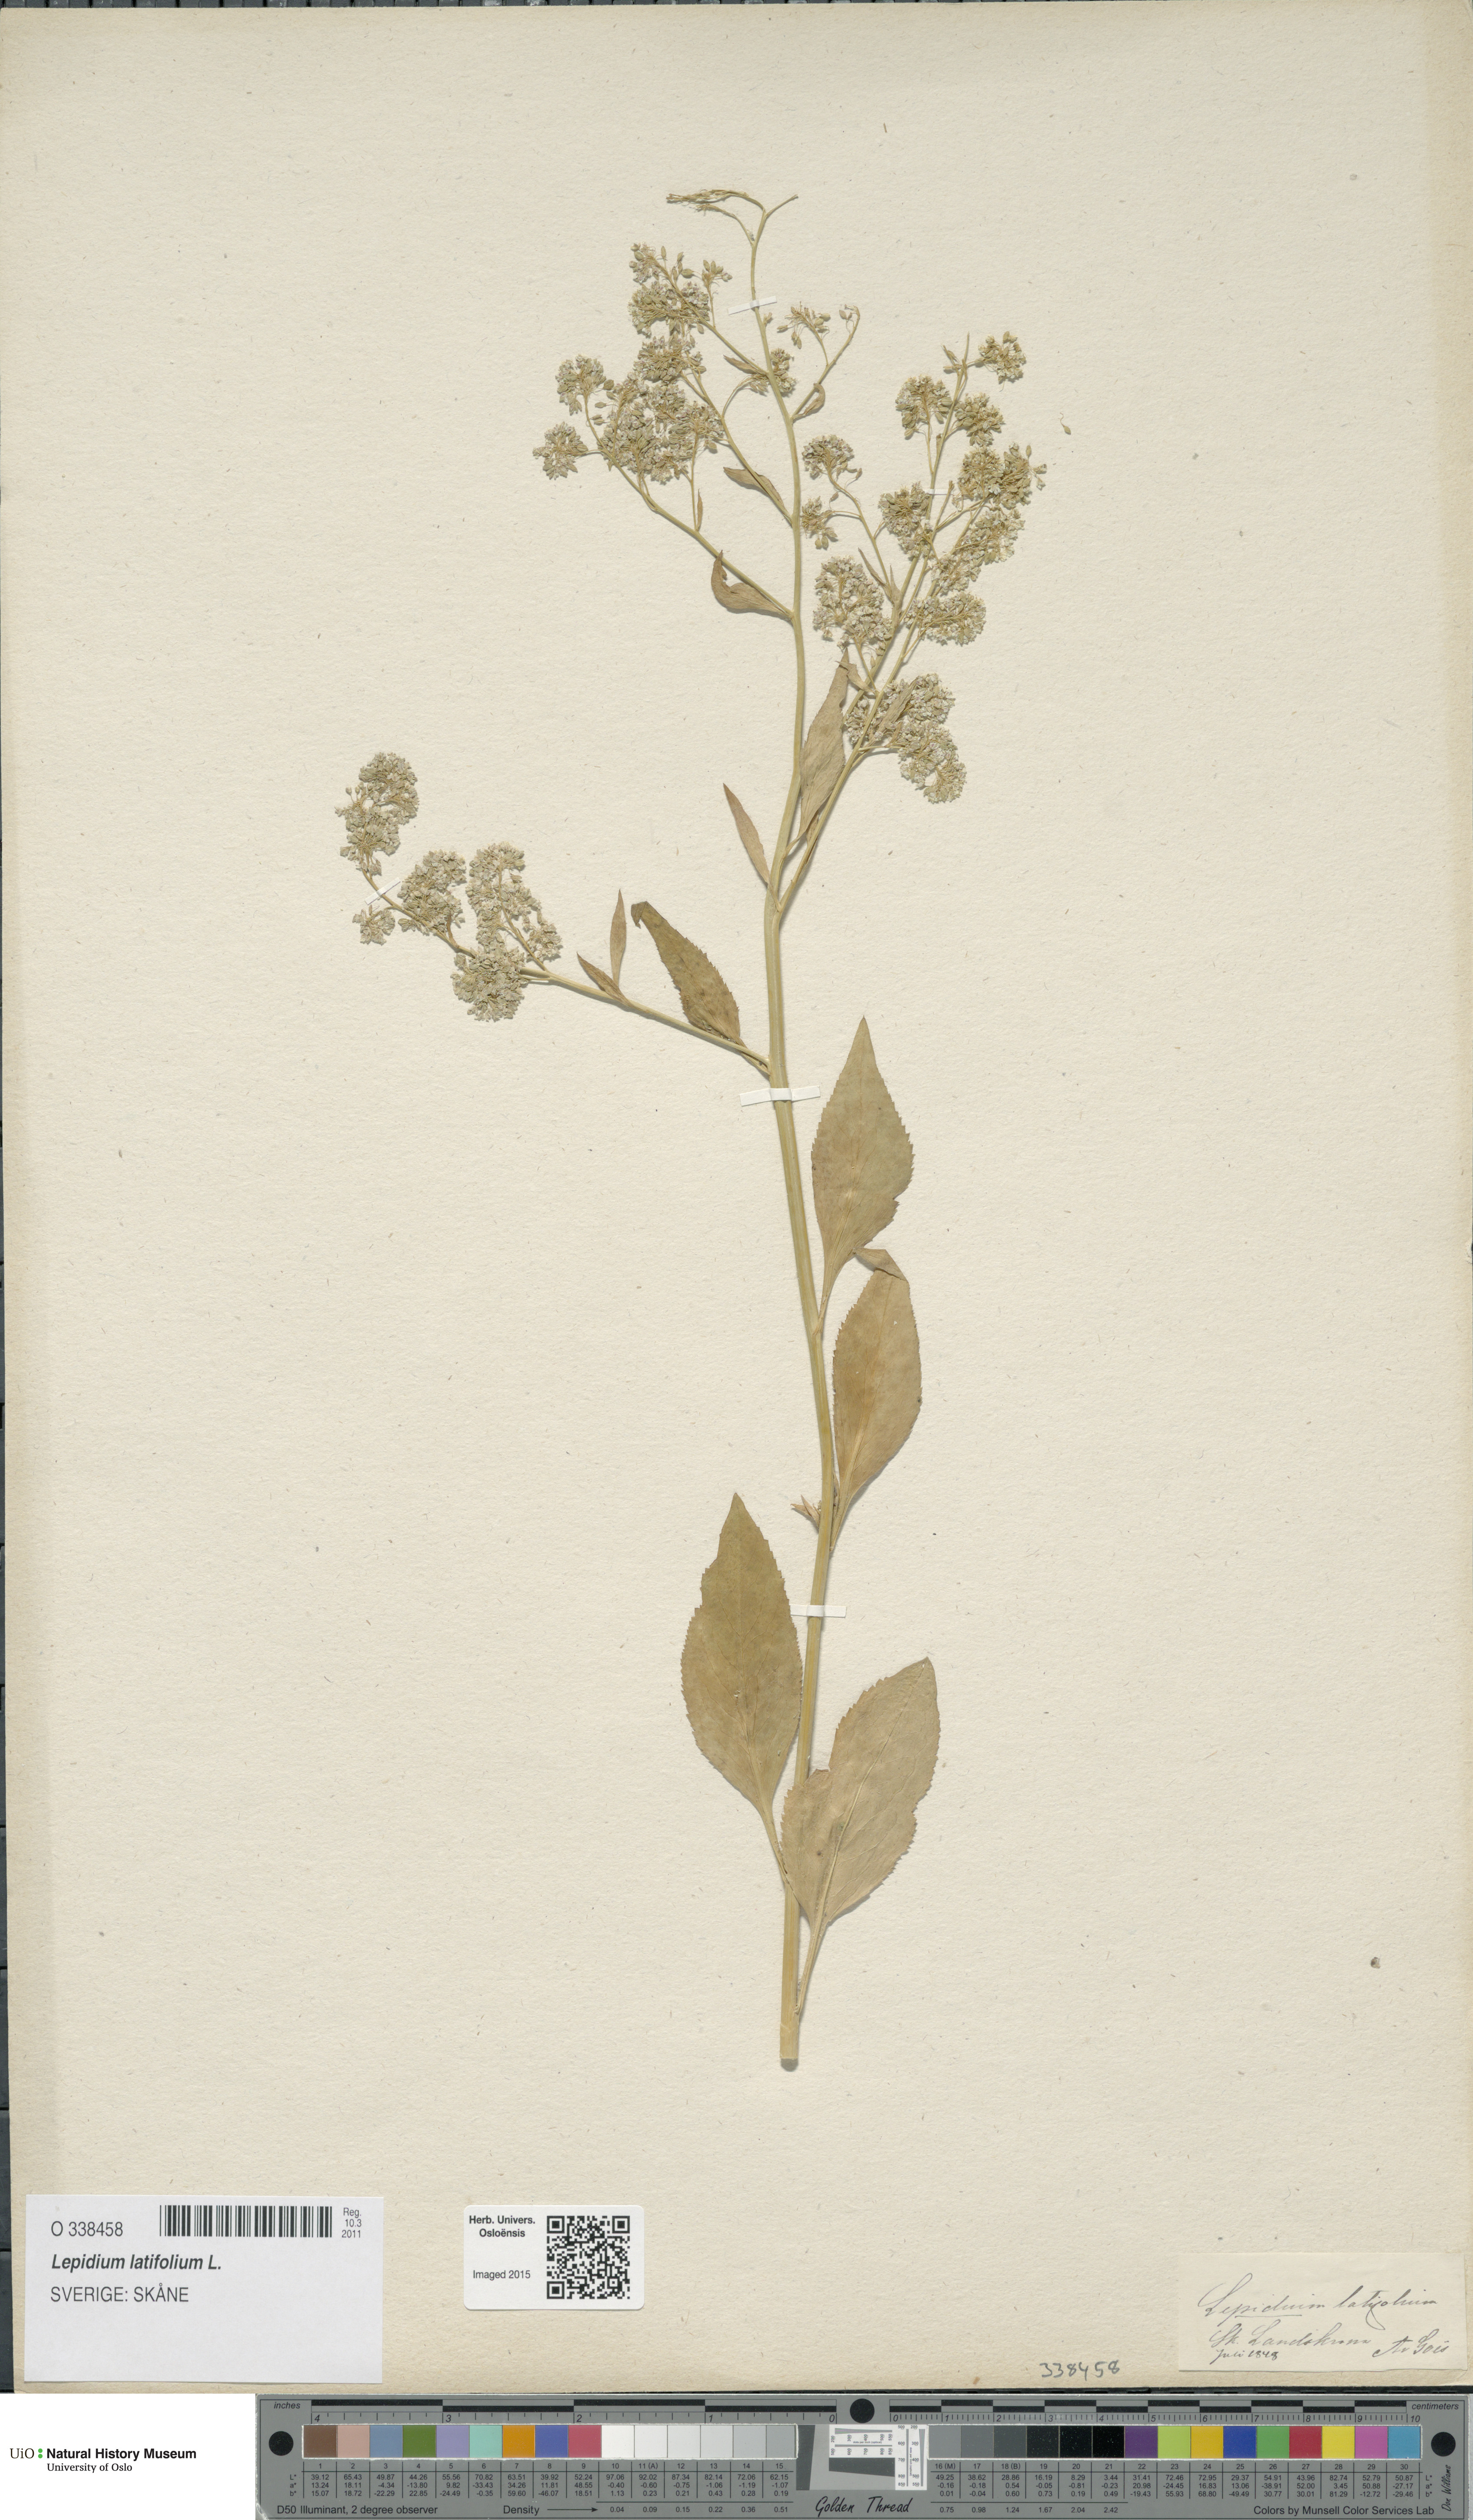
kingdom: Plantae
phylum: Tracheophyta
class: Magnoliopsida
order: Brassicales
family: Brassicaceae
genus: Lepidium
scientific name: Lepidium latifolium
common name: Dittander
